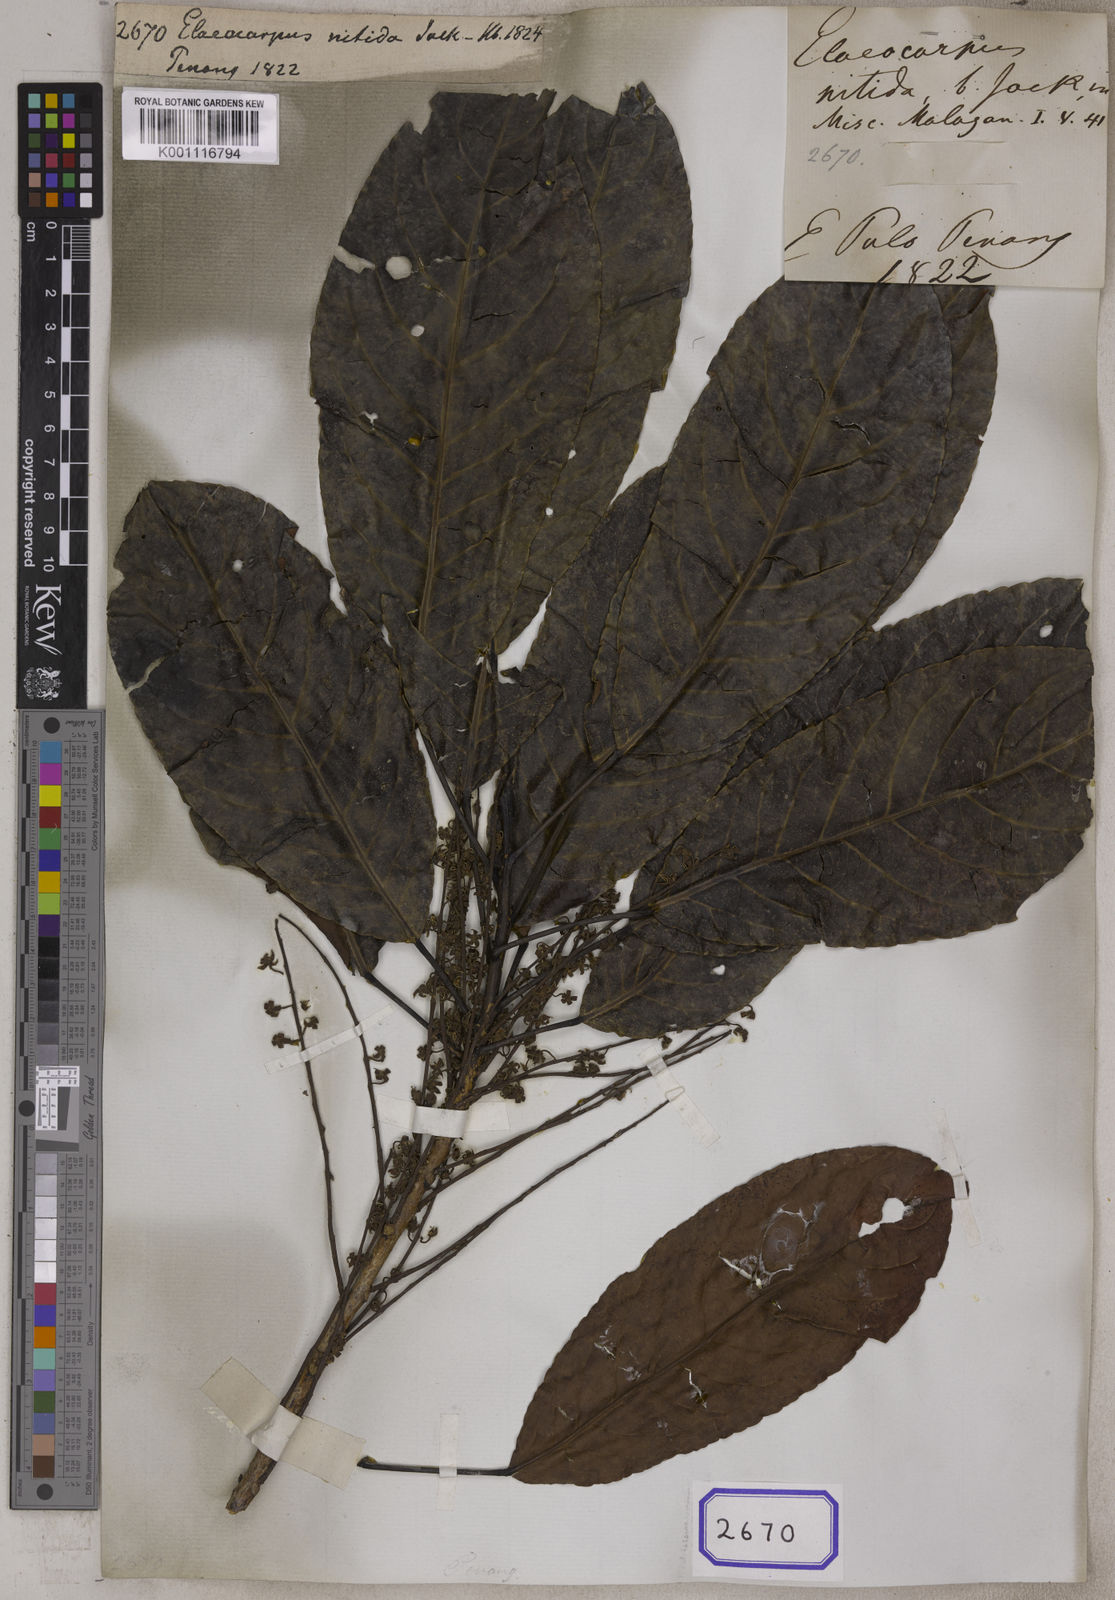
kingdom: Plantae
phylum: Tracheophyta
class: Magnoliopsida
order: Oxalidales
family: Elaeocarpaceae
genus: Elaeocarpus
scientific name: Elaeocarpus nitidus
